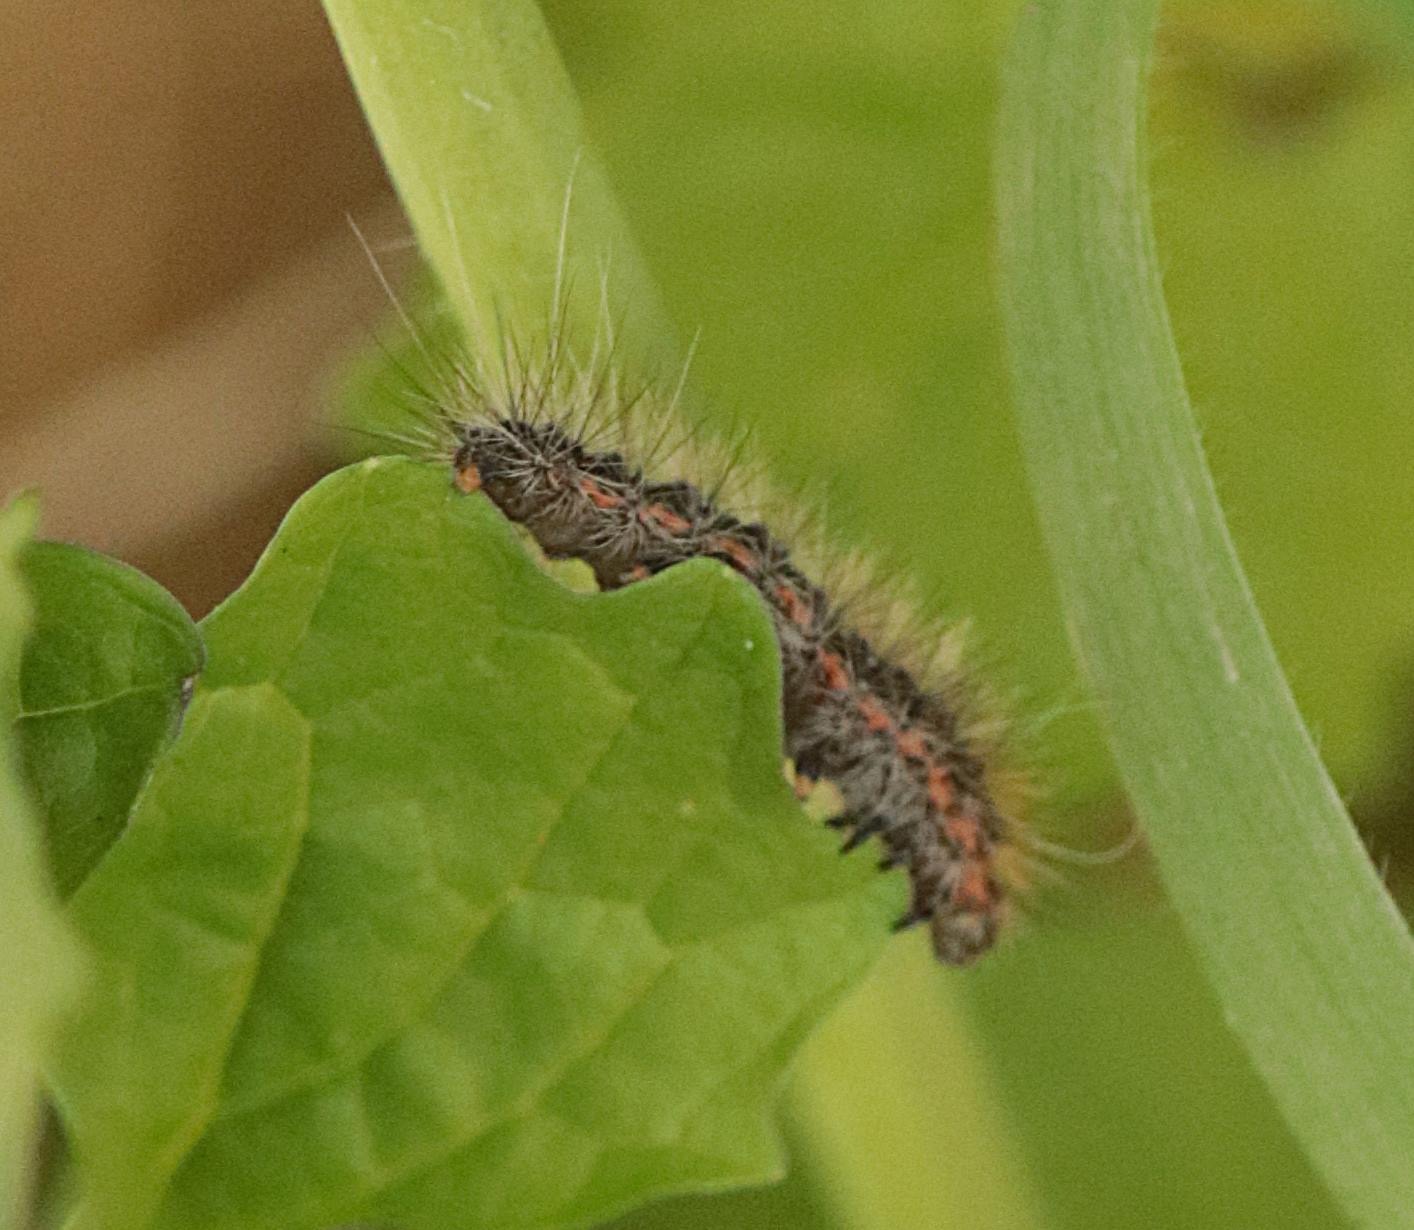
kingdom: Animalia
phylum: Arthropoda
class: Insecta
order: Lepidoptera
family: Erebidae
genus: Arctia
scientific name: Arctia caja
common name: Brun bjørn
